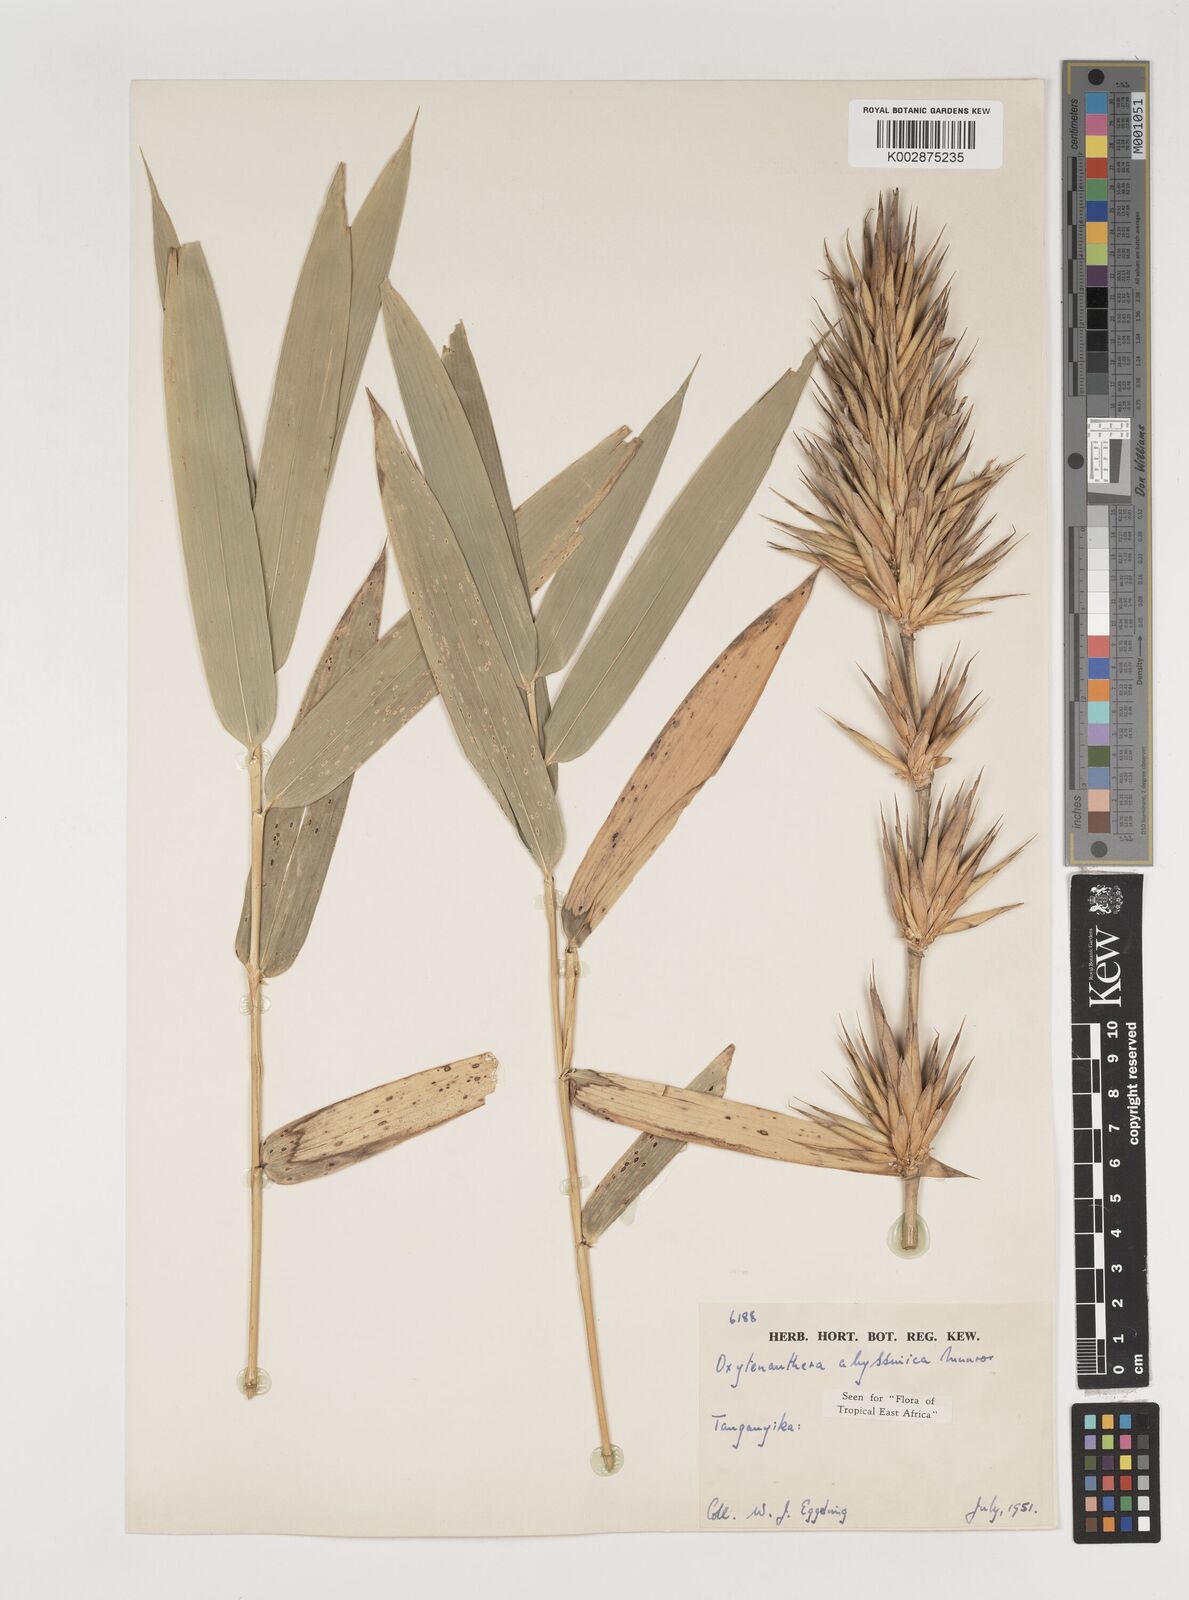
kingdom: Plantae
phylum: Tracheophyta
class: Liliopsida
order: Poales
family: Poaceae
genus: Oxytenanthera
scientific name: Oxytenanthera abyssinica
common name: Wine bamboo
